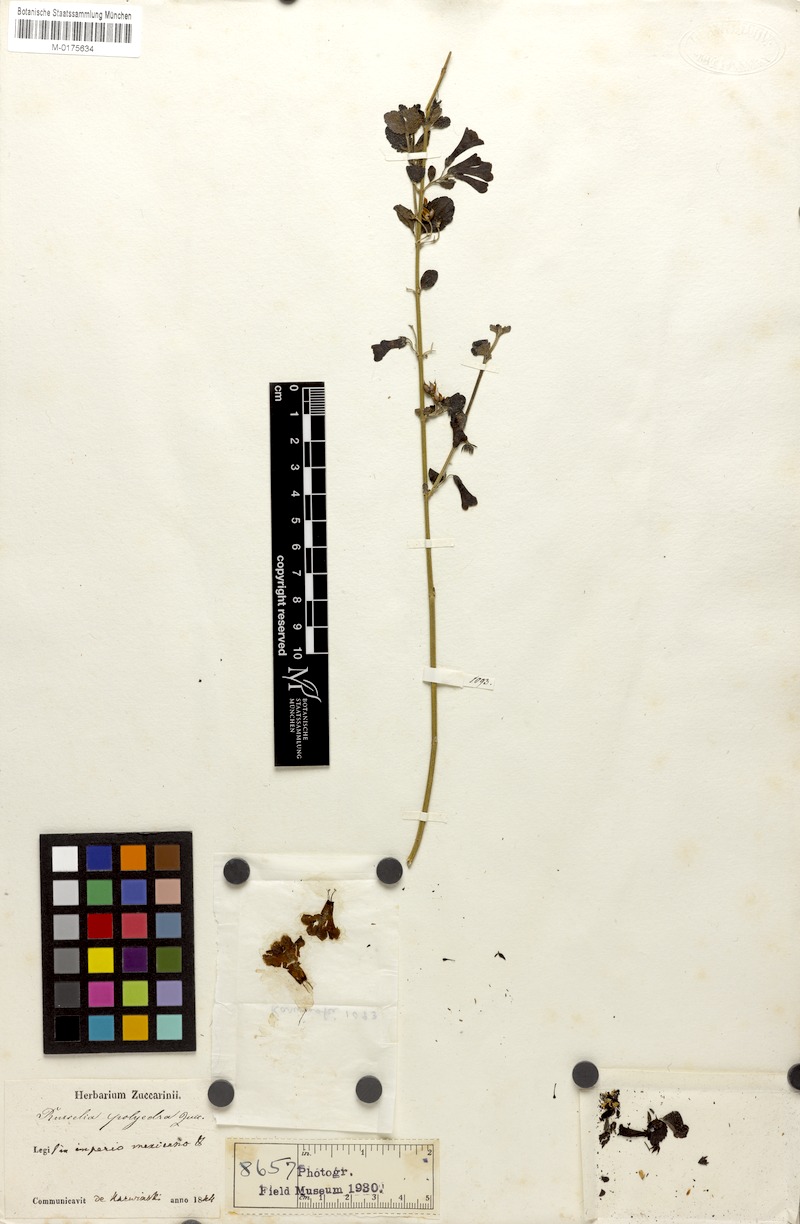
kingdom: Plantae
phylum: Tracheophyta
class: Magnoliopsida
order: Lamiales
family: Plantaginaceae
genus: Russelia
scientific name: Russelia polyedra
